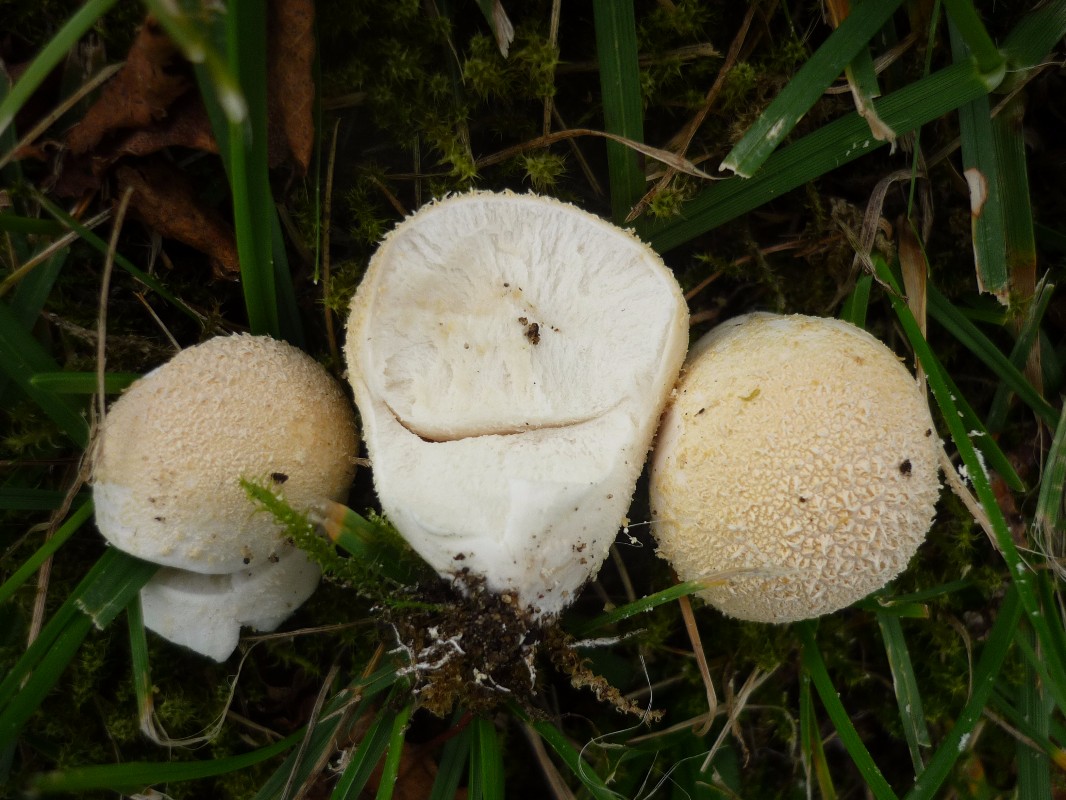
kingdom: Fungi
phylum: Basidiomycota
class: Agaricomycetes
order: Agaricales
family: Lycoperdaceae
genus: Lycoperdon
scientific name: Lycoperdon pratense
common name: flad støvbold
